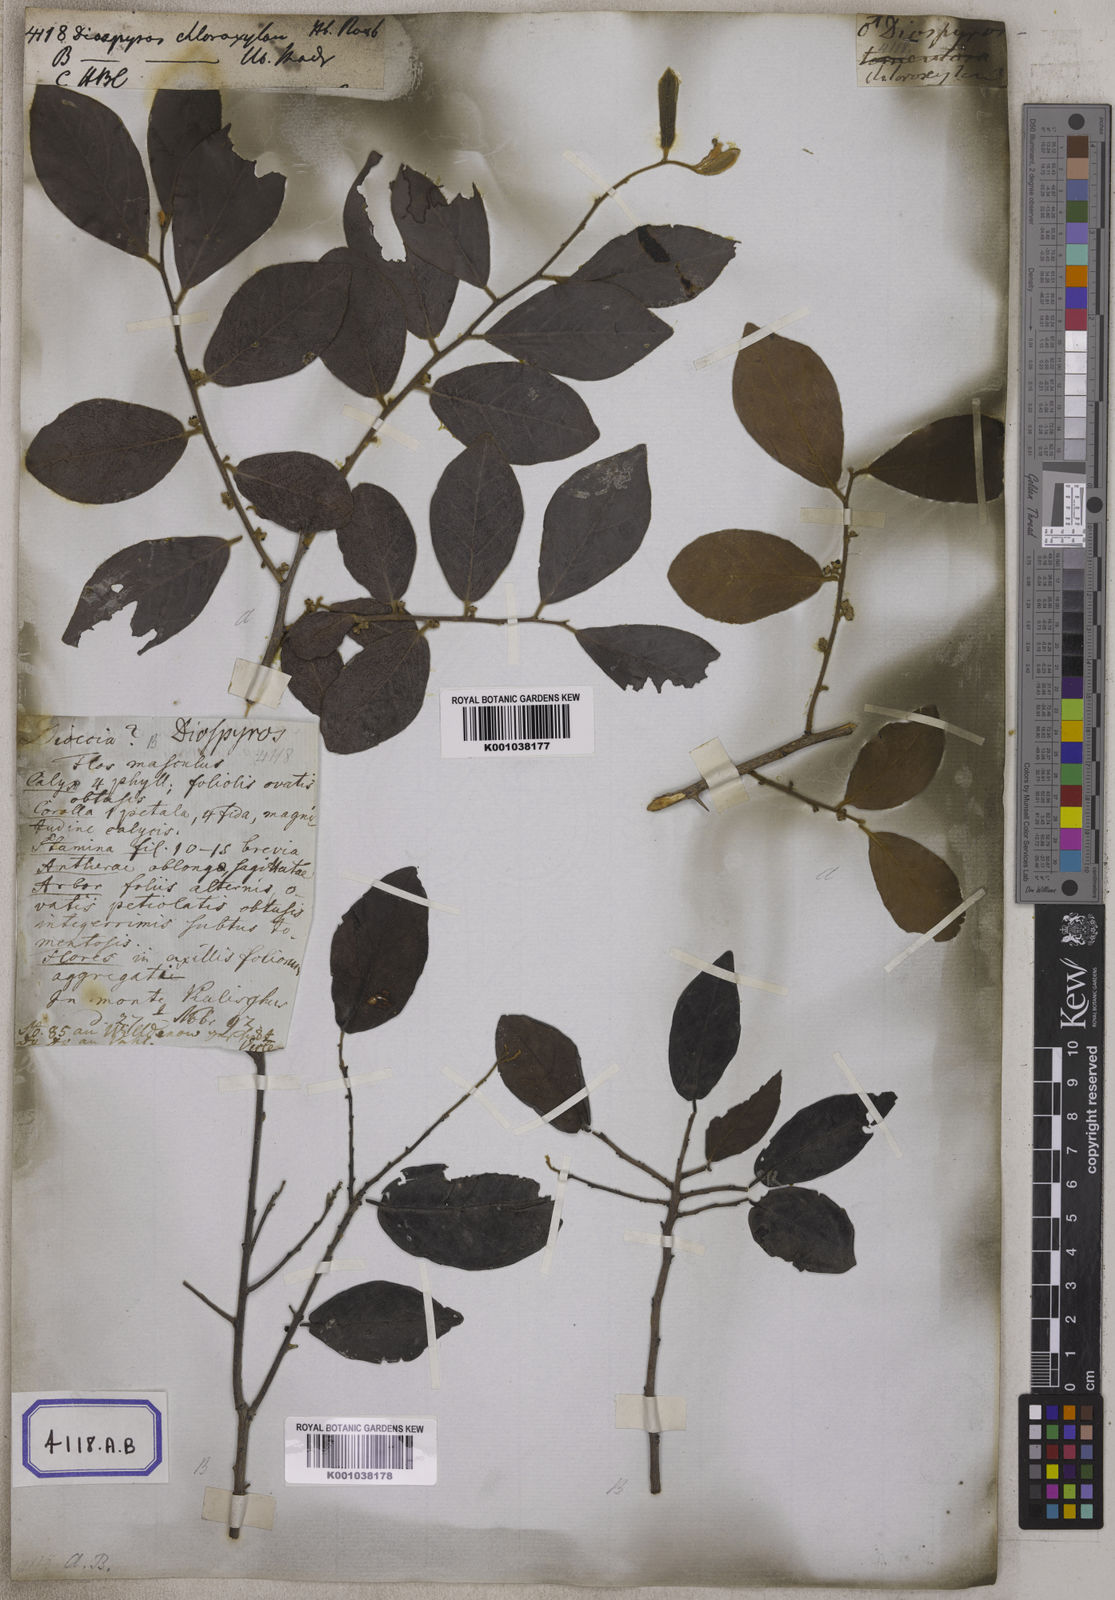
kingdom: Plantae
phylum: Tracheophyta
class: Magnoliopsida
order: Ericales
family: Ebenaceae
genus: Diospyros
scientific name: Diospyros chloroxylon
